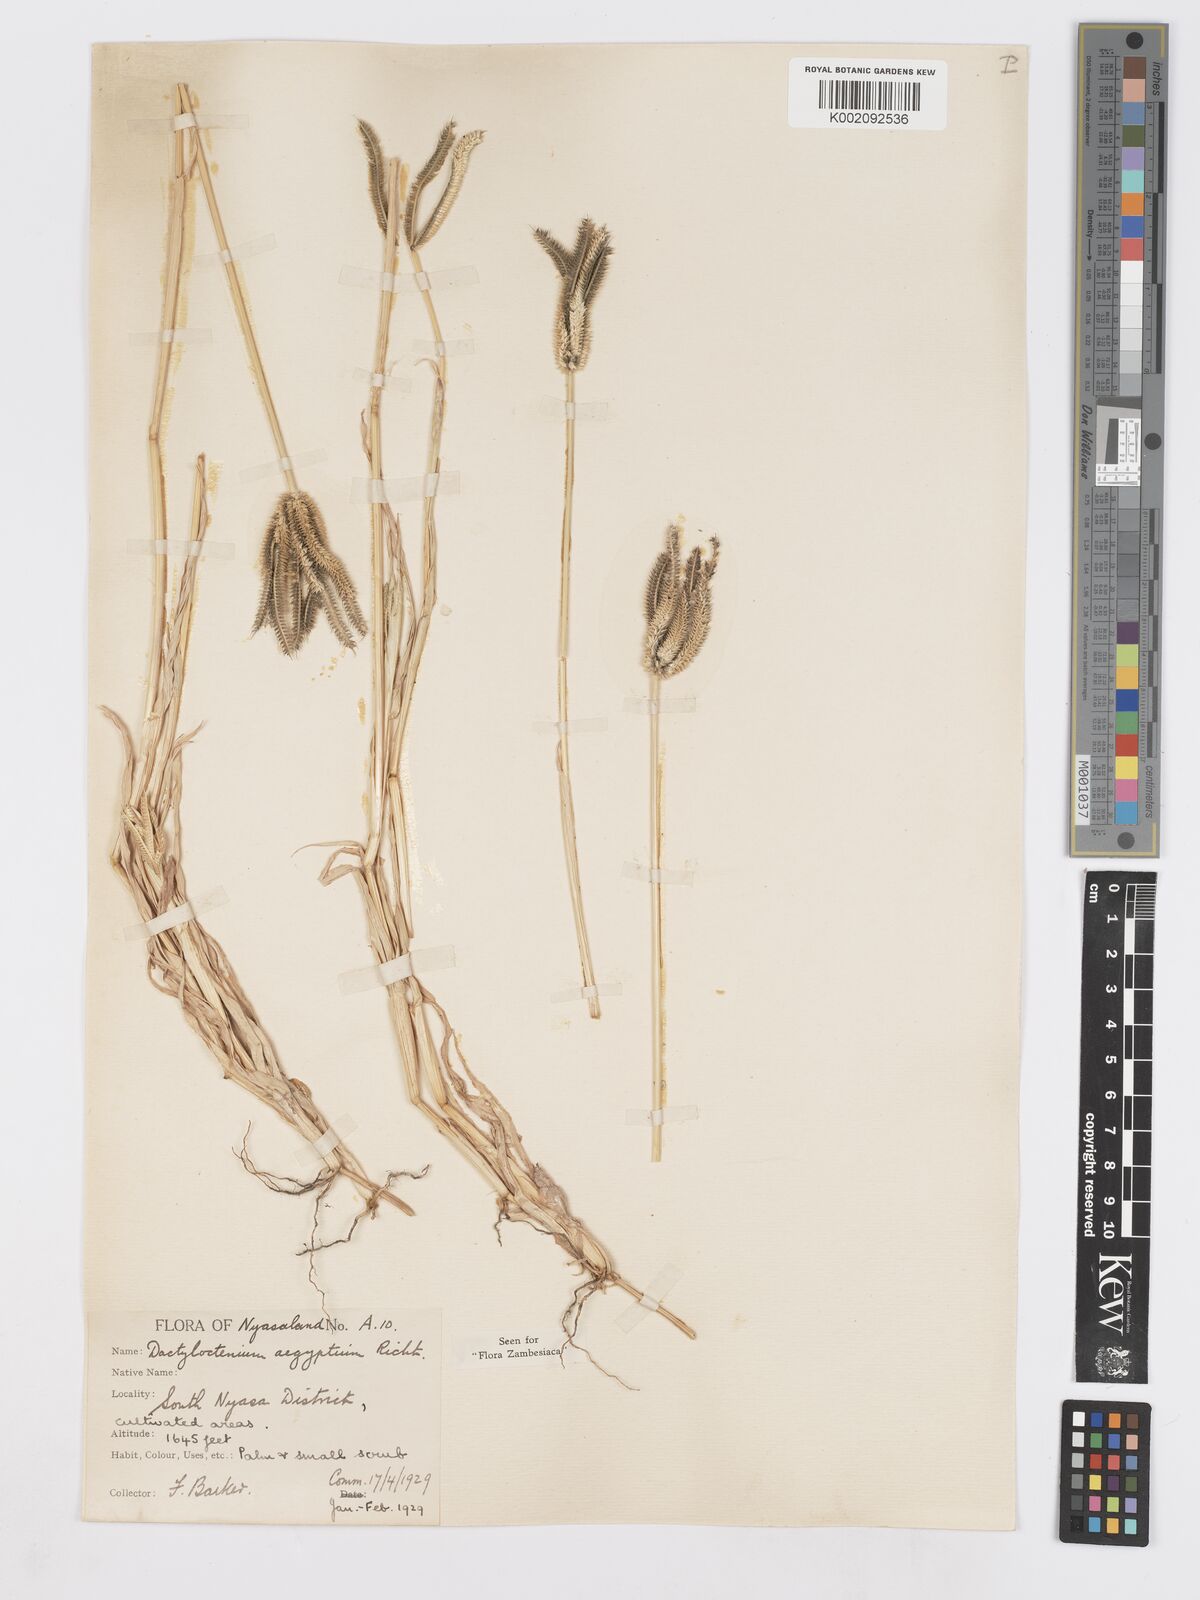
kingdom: Plantae
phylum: Tracheophyta
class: Liliopsida
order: Poales
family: Poaceae
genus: Dactyloctenium
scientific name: Dactyloctenium aegyptium
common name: Egyptian grass
